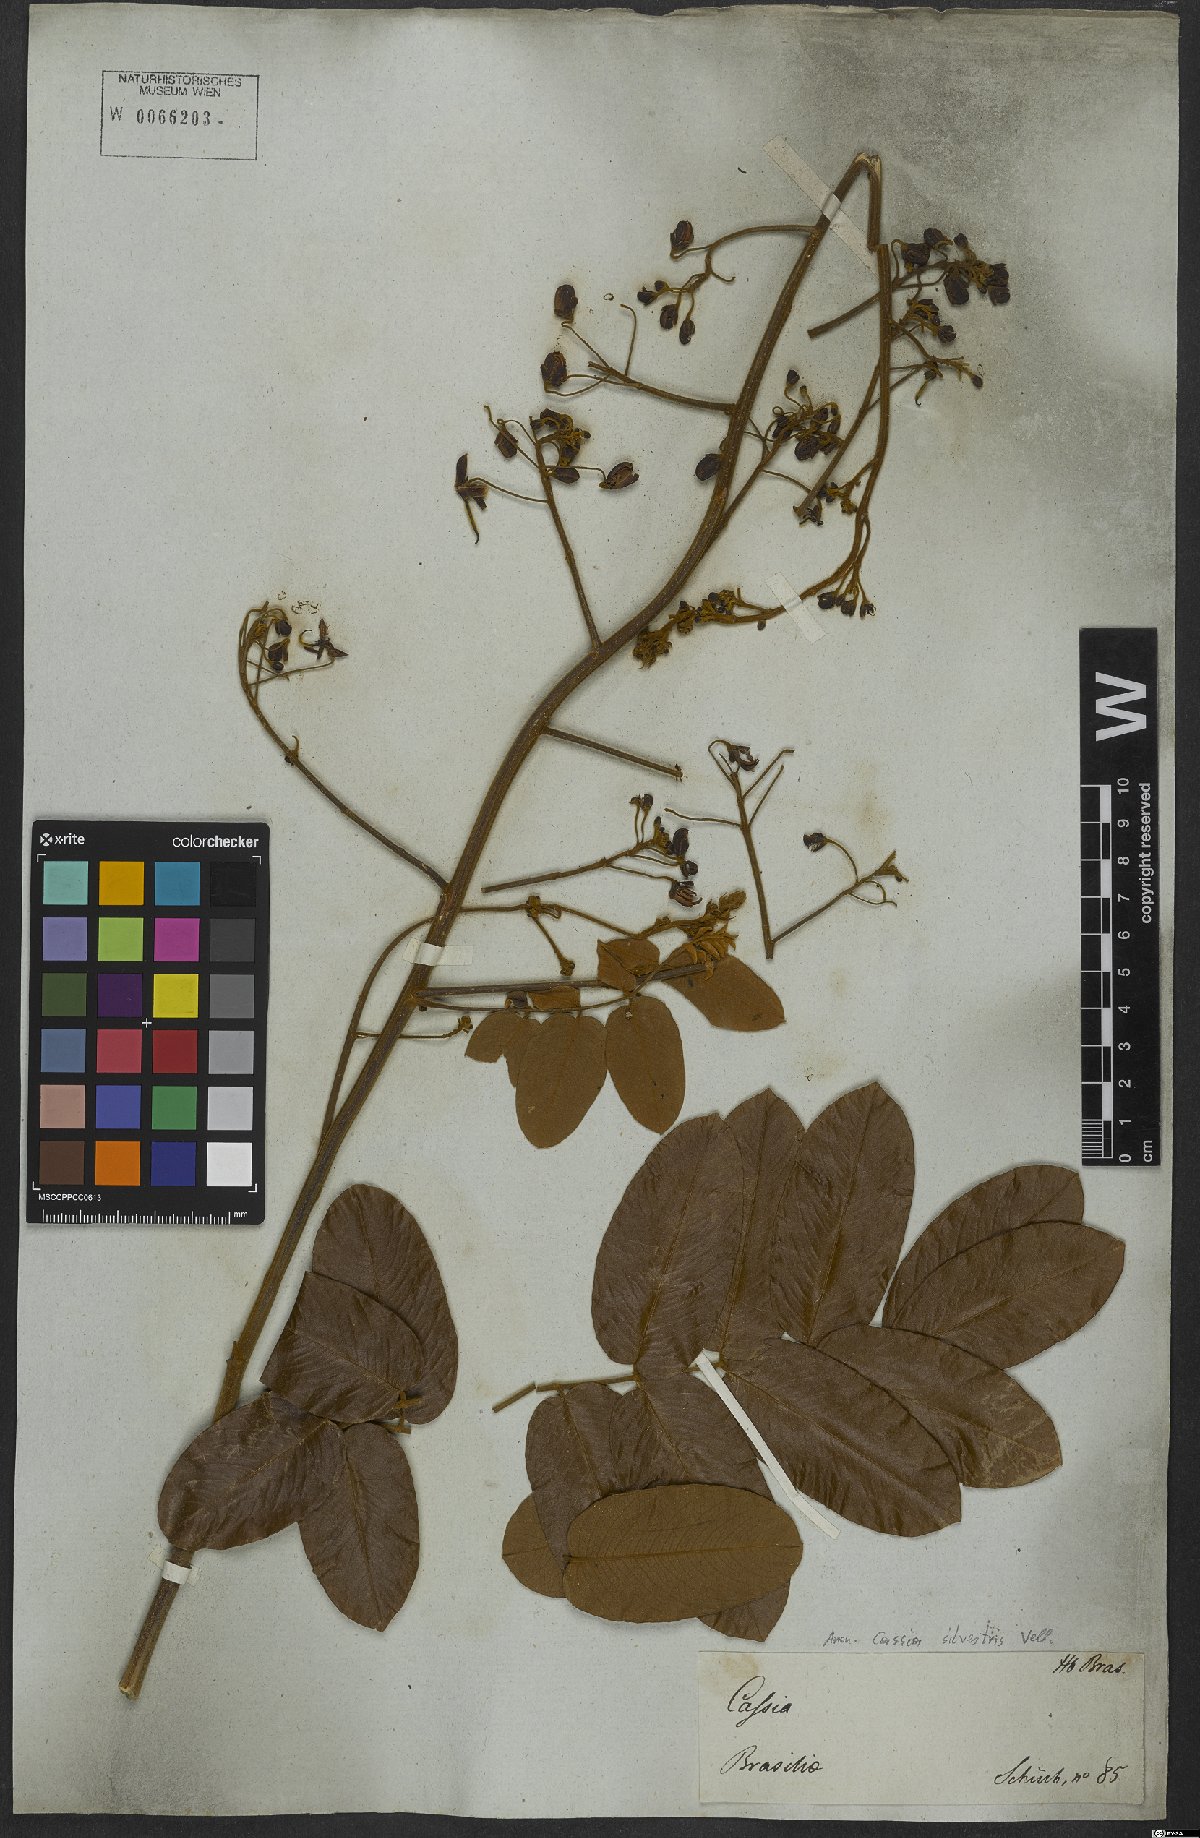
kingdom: Plantae
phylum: Tracheophyta
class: Magnoliopsida
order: Fabales
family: Fabaceae
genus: Senna
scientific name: Senna silvestris
